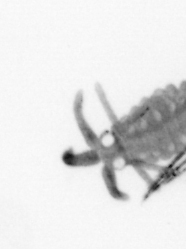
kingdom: Animalia
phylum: Annelida
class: Polychaeta
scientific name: Polychaeta
